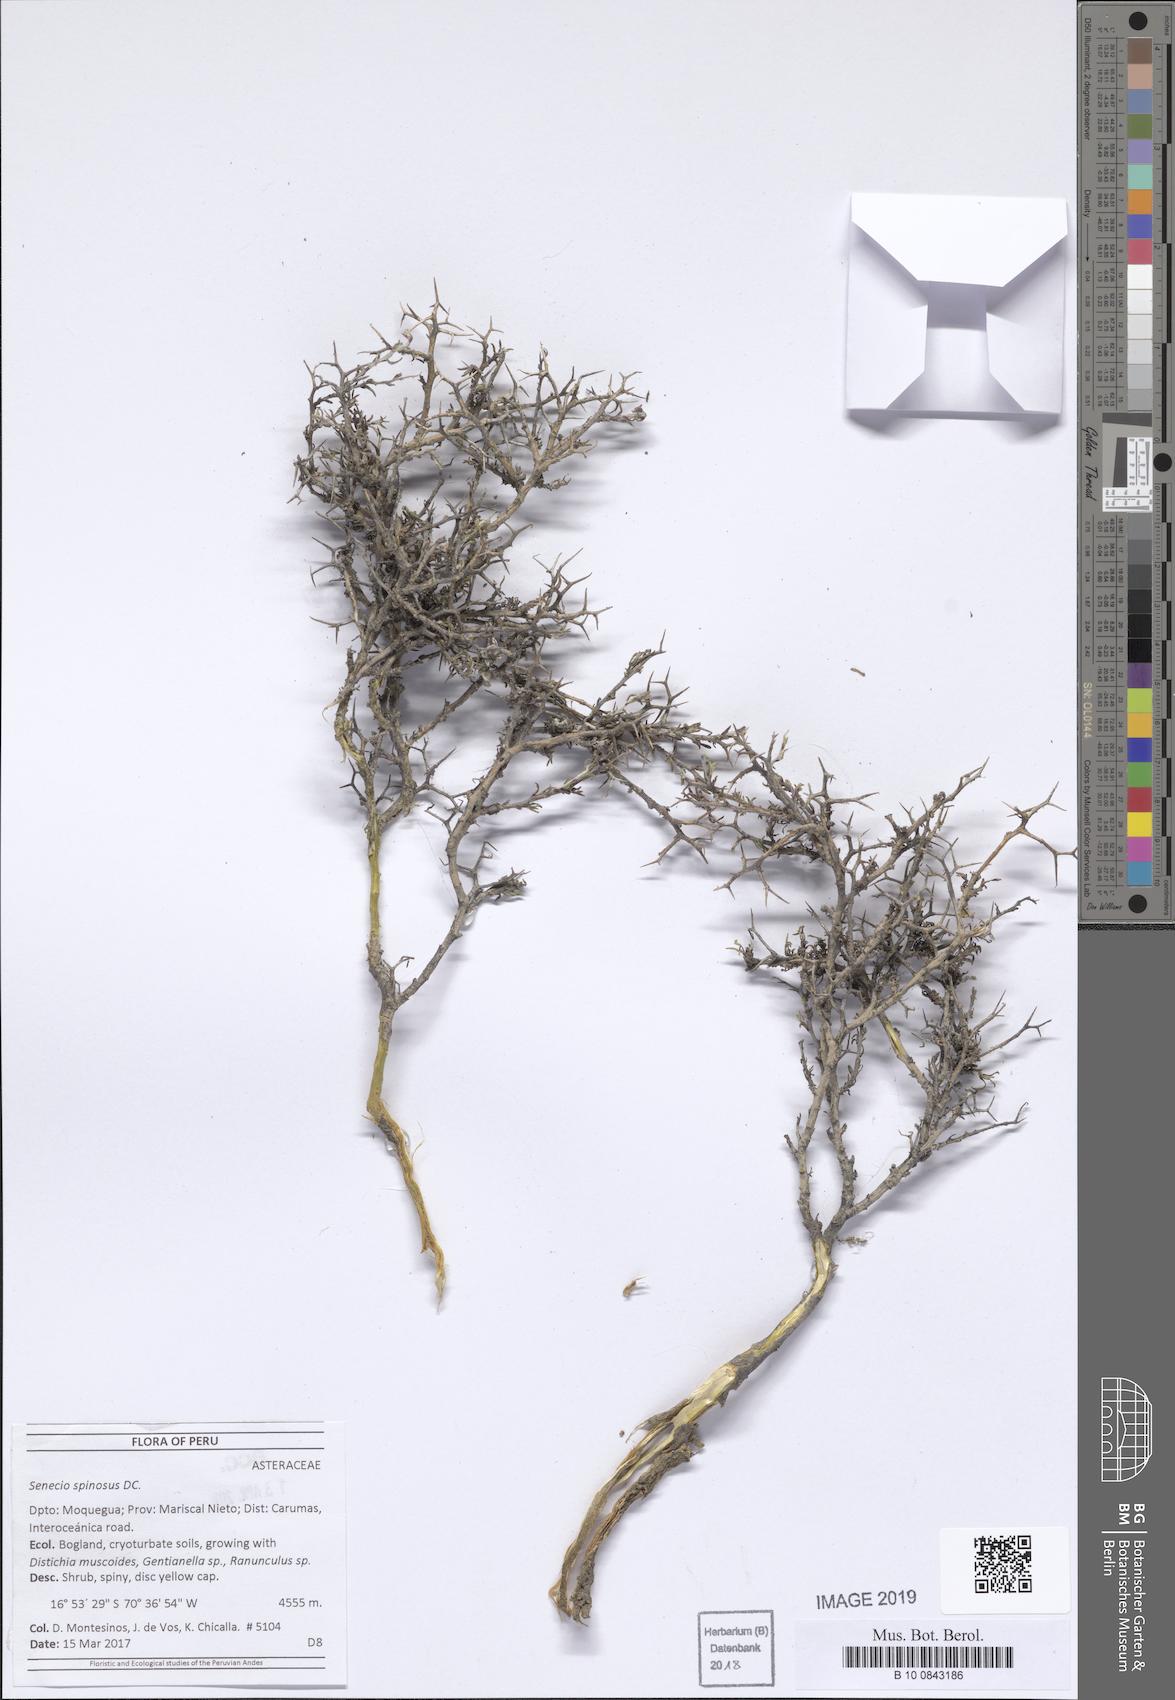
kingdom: Plantae
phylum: Tracheophyta
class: Magnoliopsida
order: Asterales
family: Asteraceae
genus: Senecio
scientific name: Senecio spinosus
